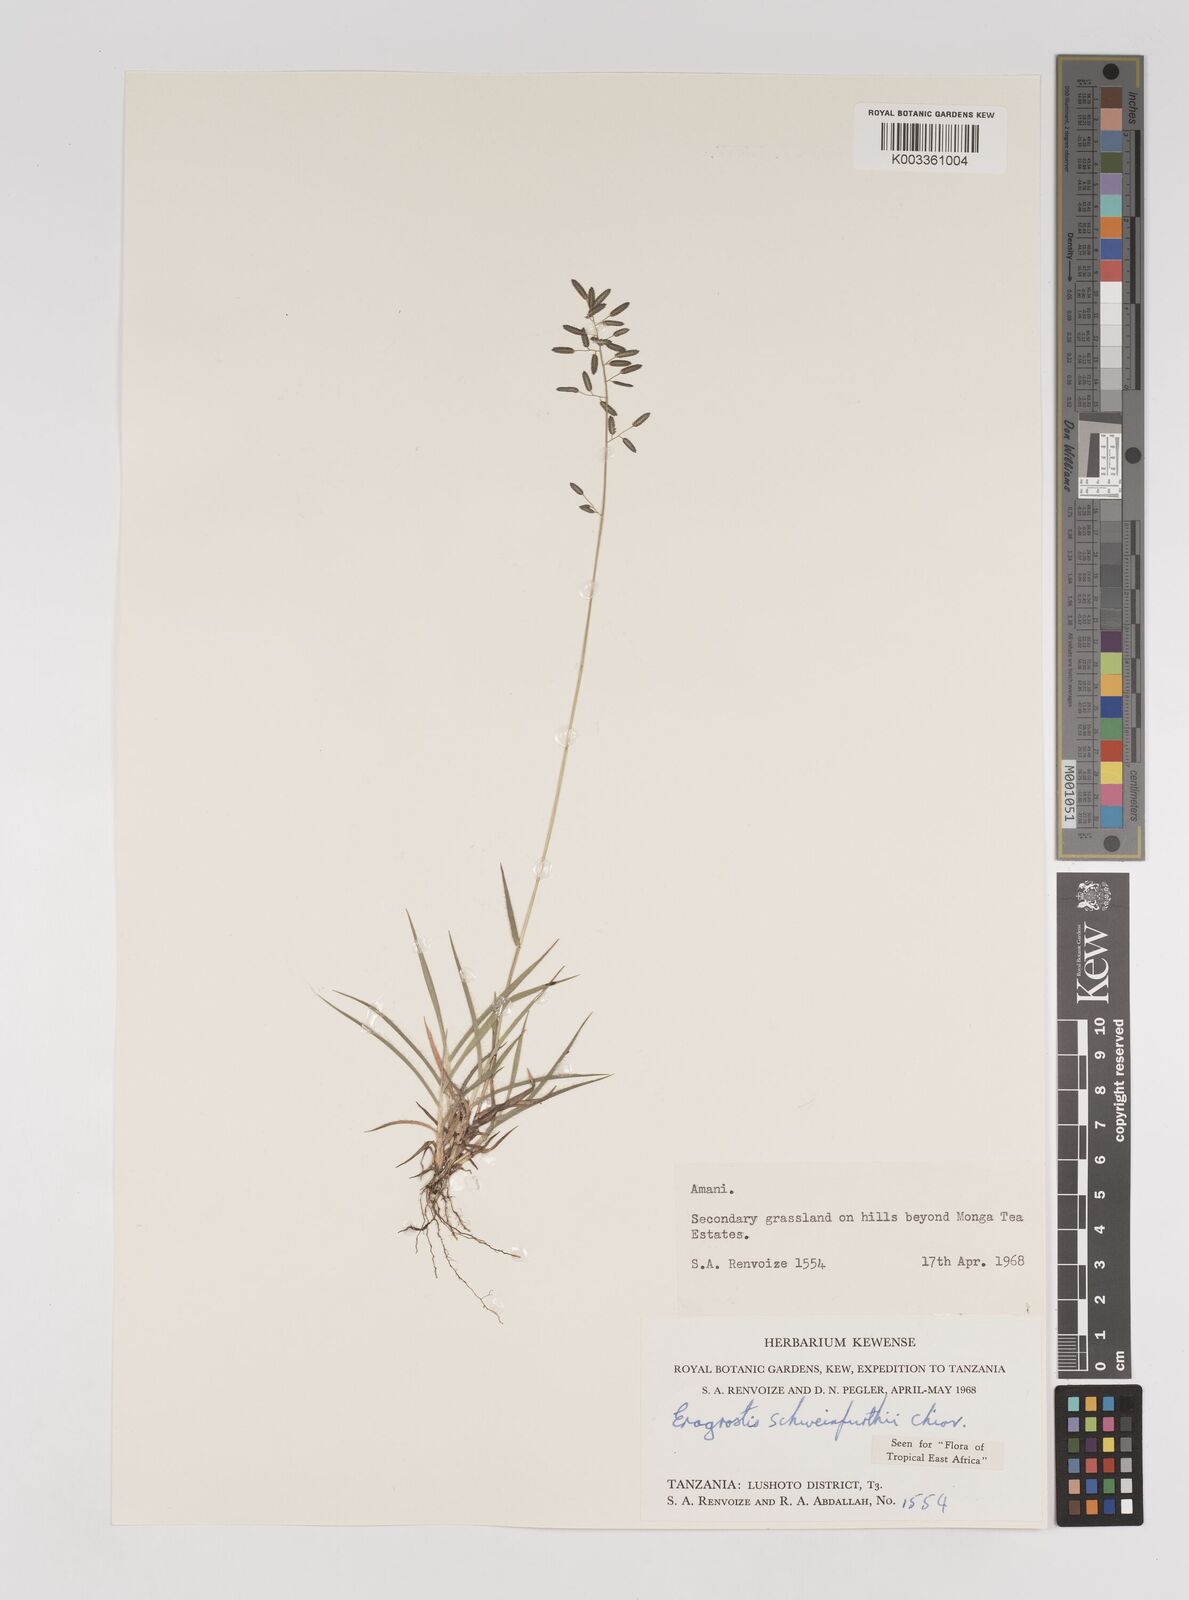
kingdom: Plantae
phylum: Tracheophyta
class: Liliopsida
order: Poales
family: Poaceae
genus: Eragrostis
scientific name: Eragrostis schweinfurthii
